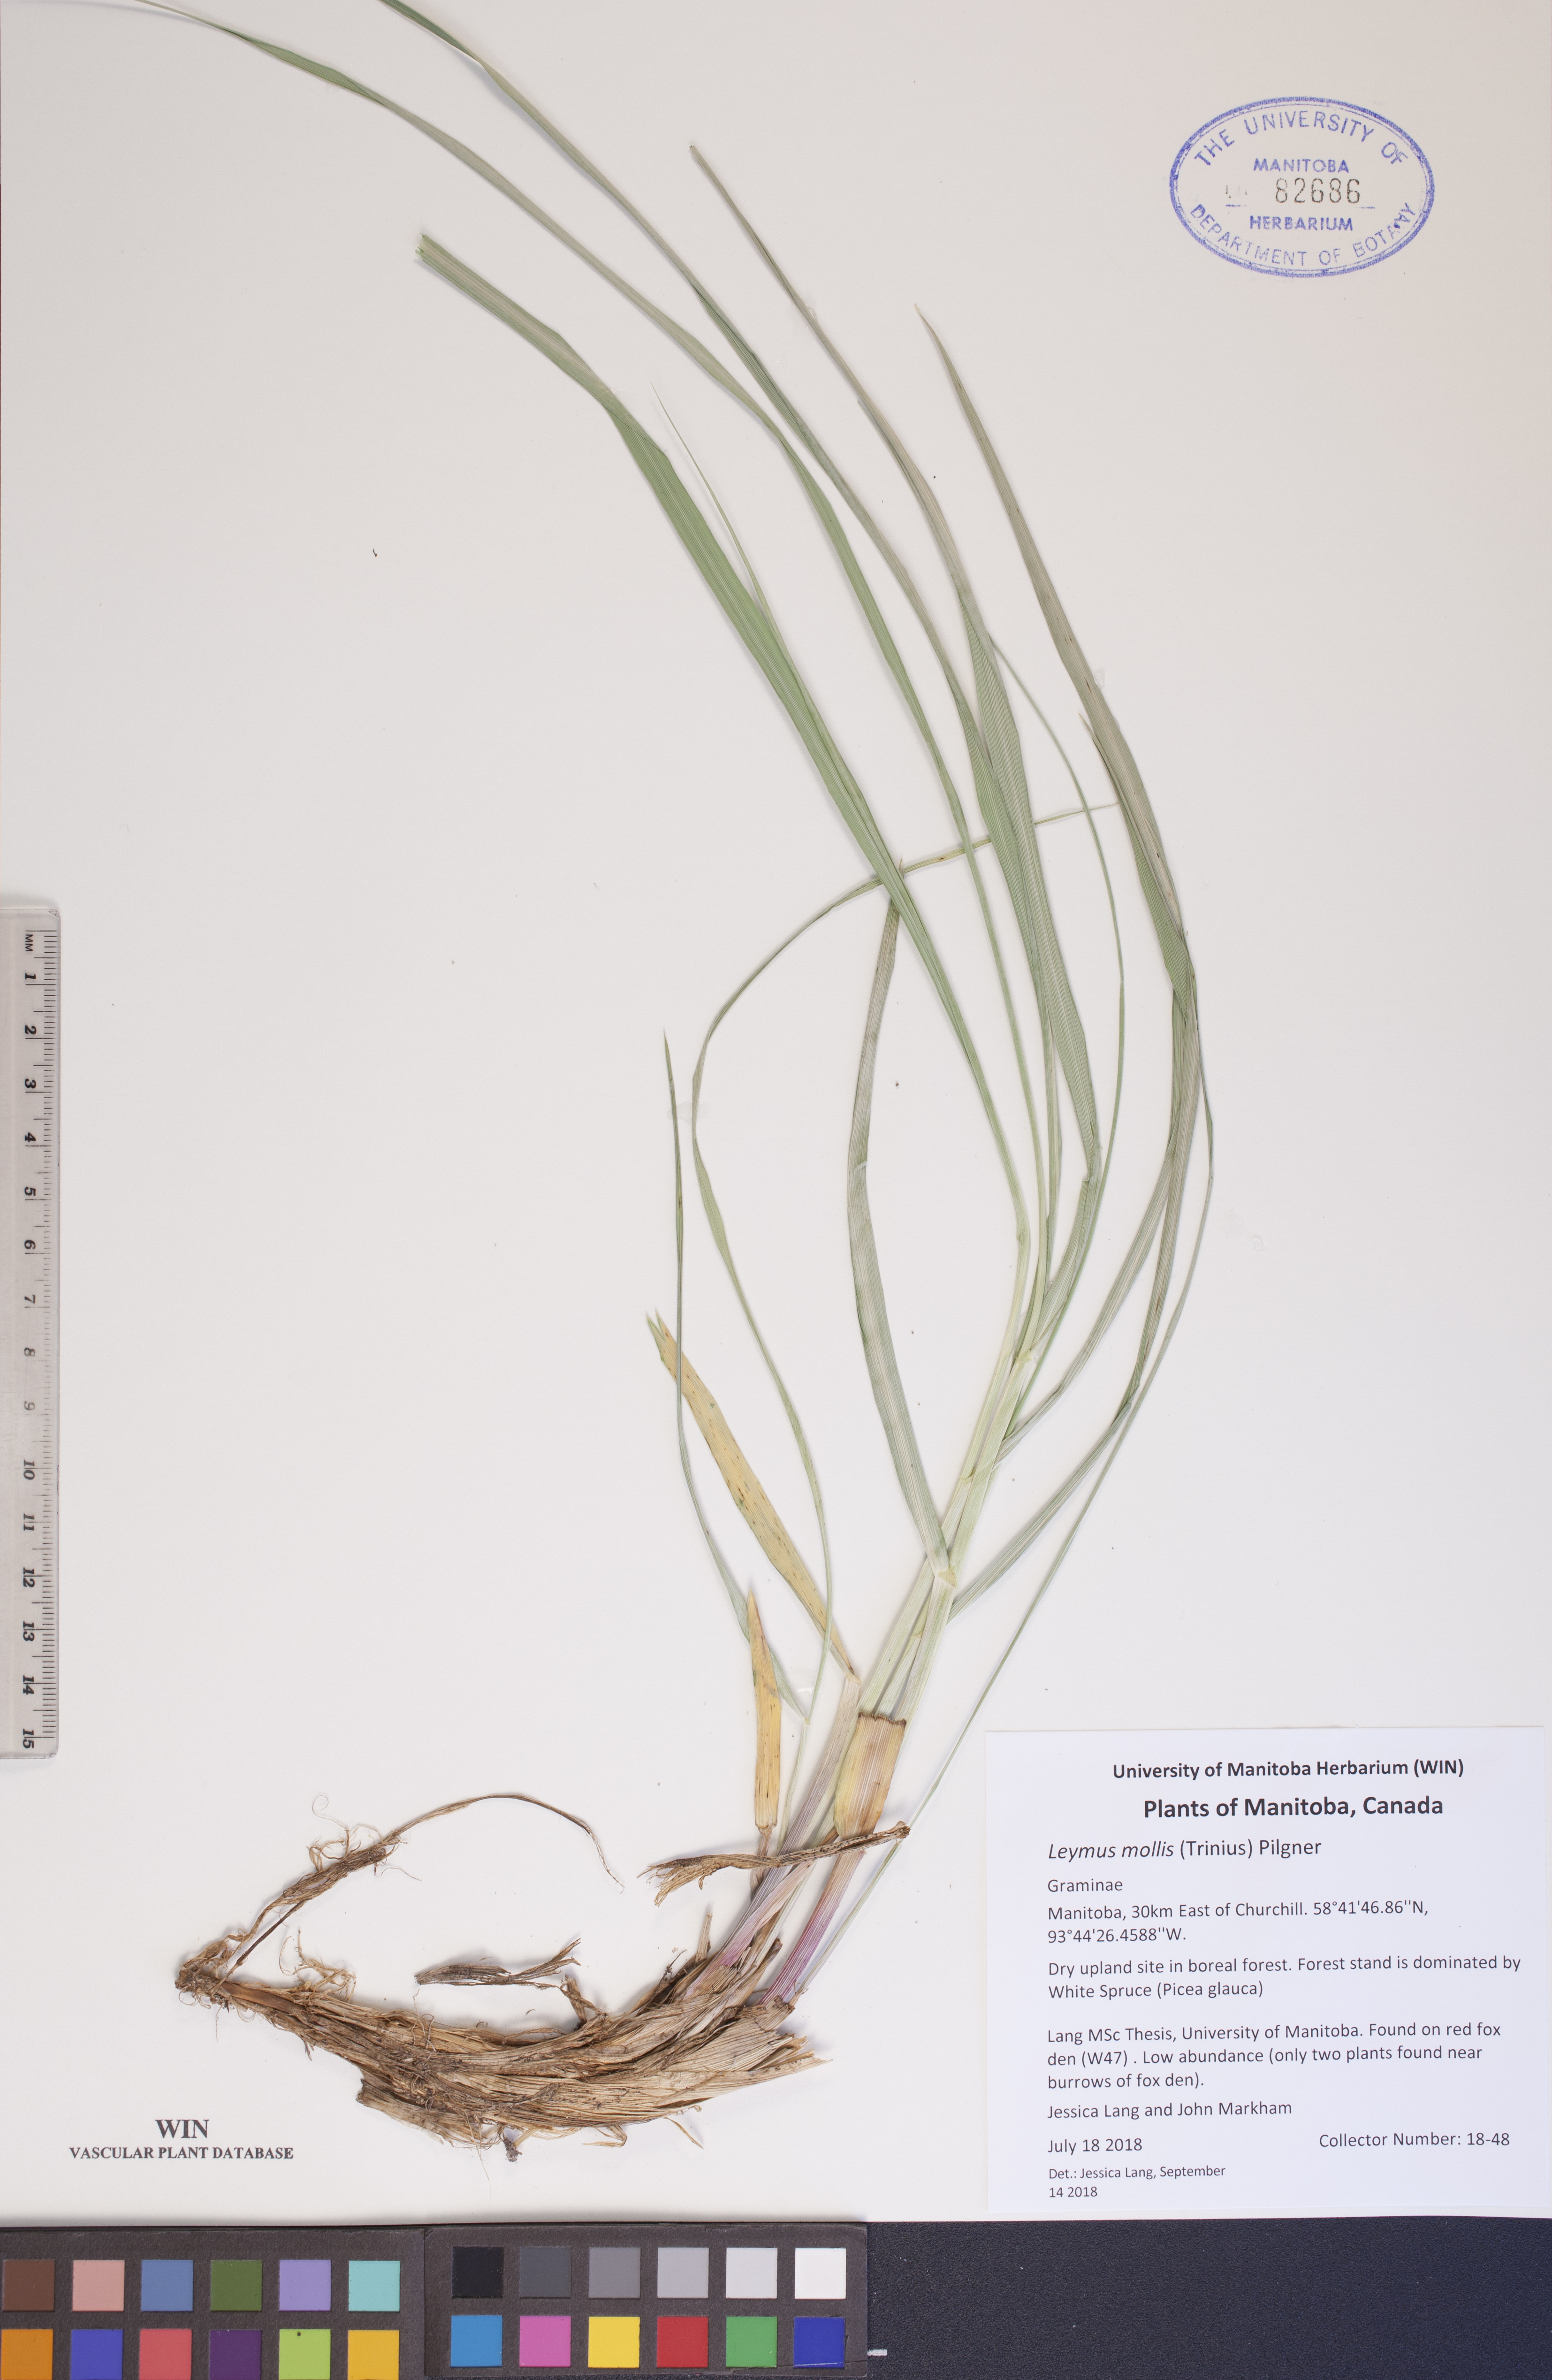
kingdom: Plantae
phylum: Tracheophyta
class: Liliopsida
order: Poales
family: Poaceae
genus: Leymus
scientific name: Leymus mollis
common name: American dune grass
